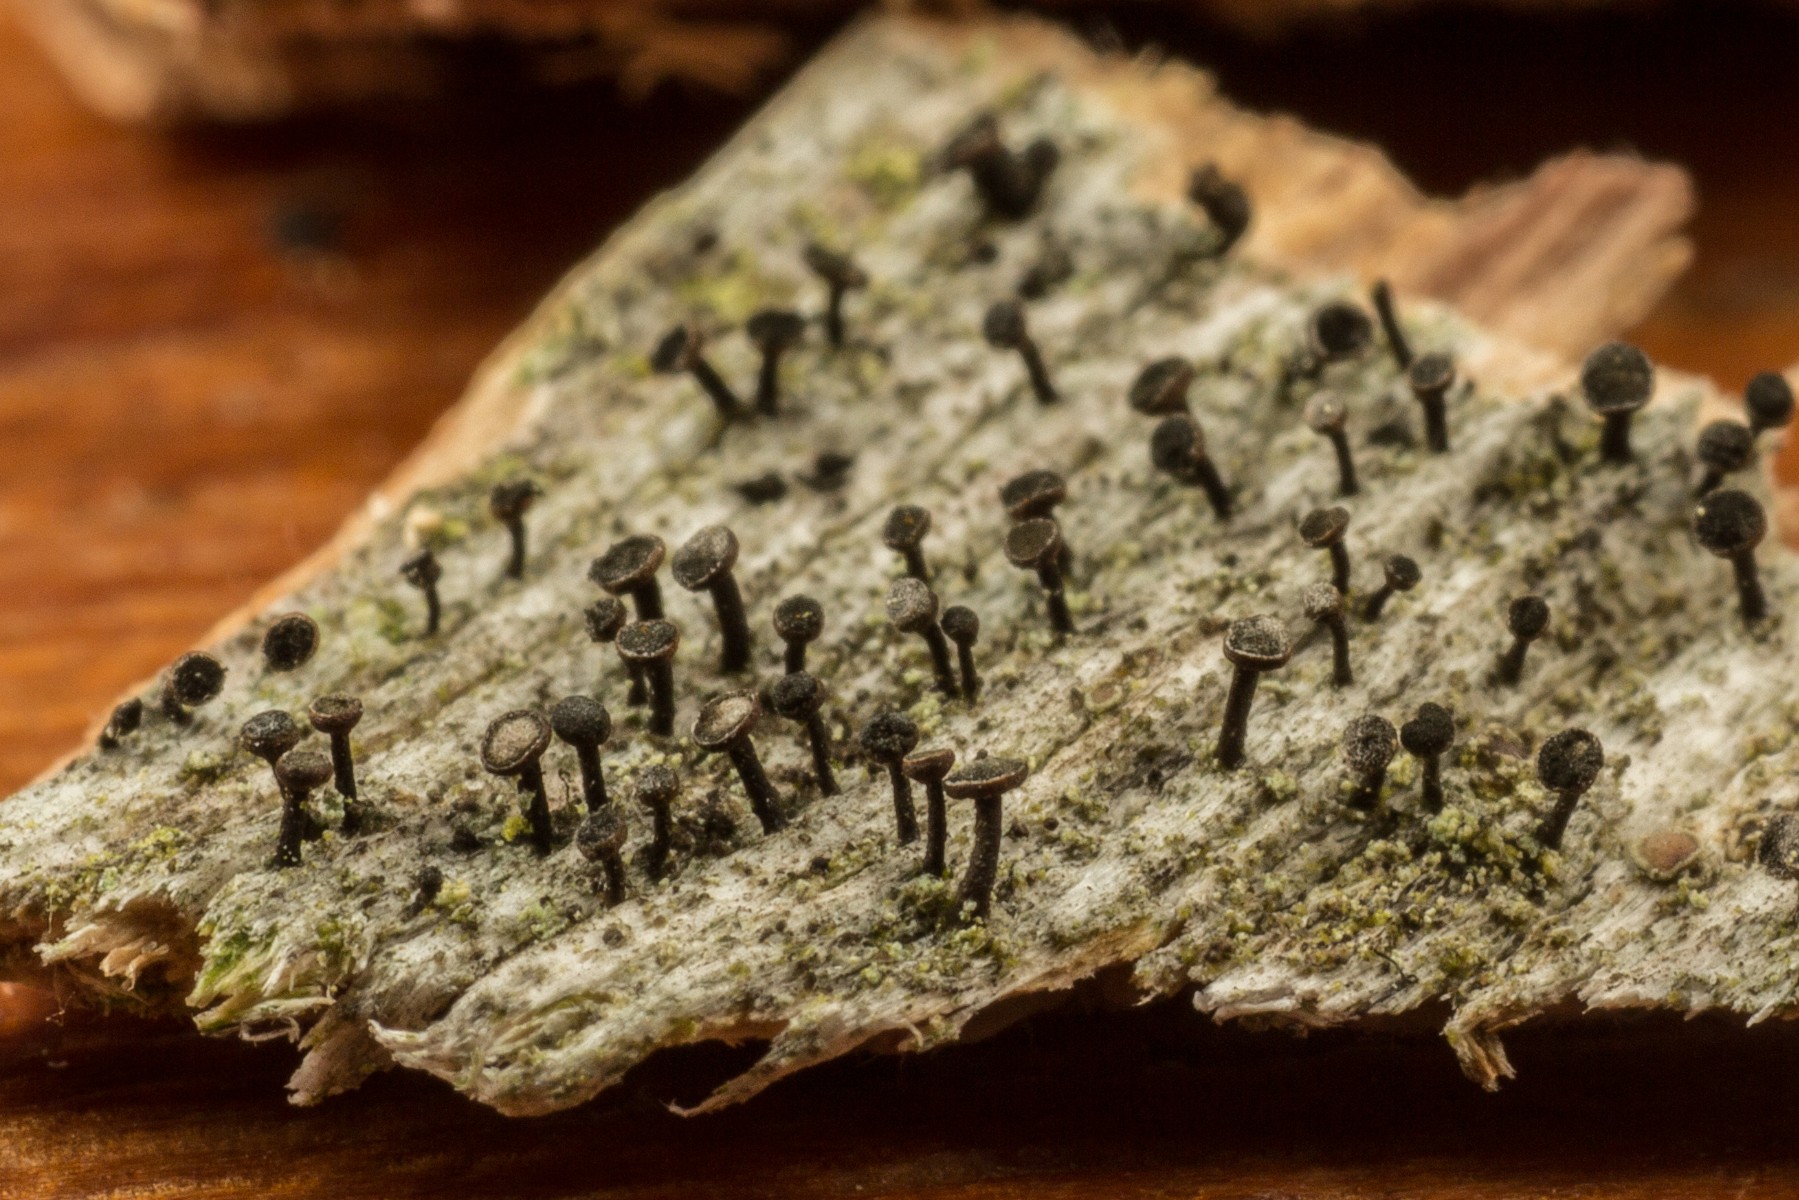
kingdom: Fungi
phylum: Ascomycota
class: Lecanoromycetes
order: Caliciales
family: Caliciaceae
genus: Calicium
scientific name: Calicium salicinum
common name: persoons nålelav
